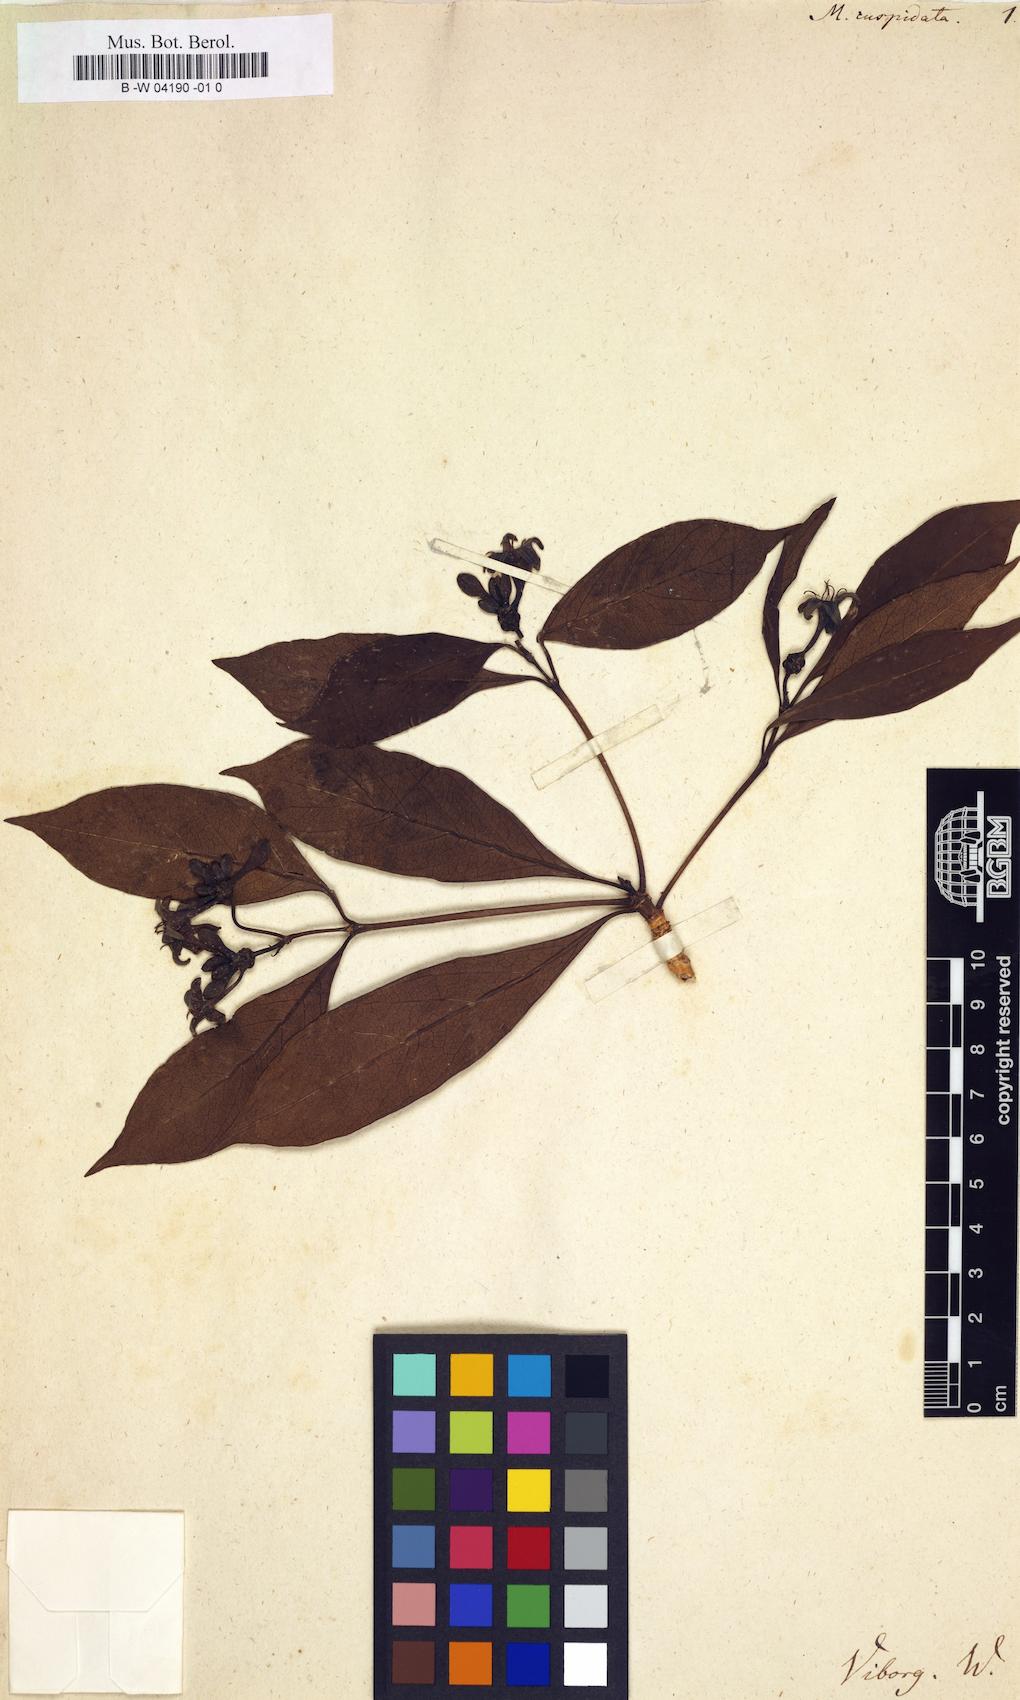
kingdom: Plantae
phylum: Tracheophyta
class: Magnoliopsida
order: Gentianales
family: Rubiaceae
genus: Morinda
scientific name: Morinda
